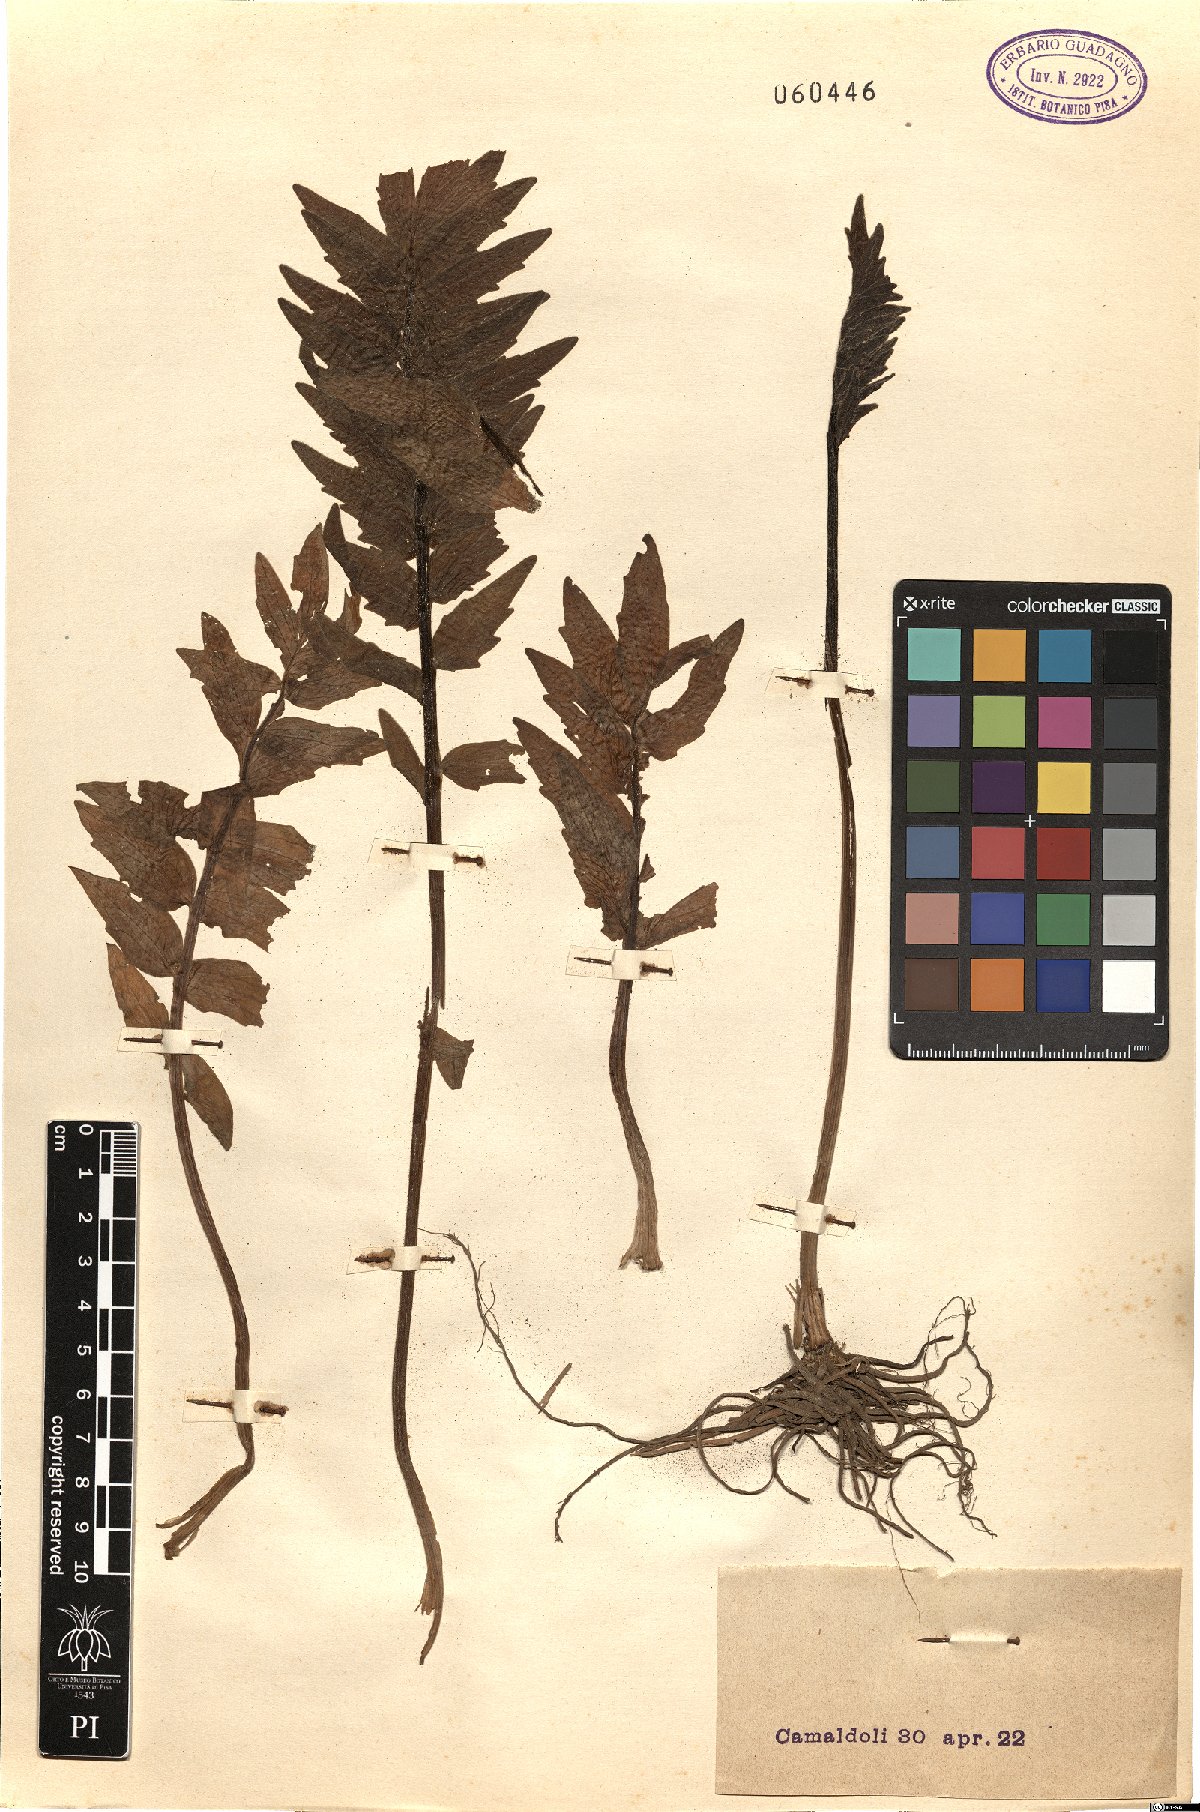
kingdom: Plantae
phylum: Tracheophyta
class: Magnoliopsida
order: Apiales
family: Apiaceae
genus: Berula
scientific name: Berula erecta
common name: Lesser water-parsnip
